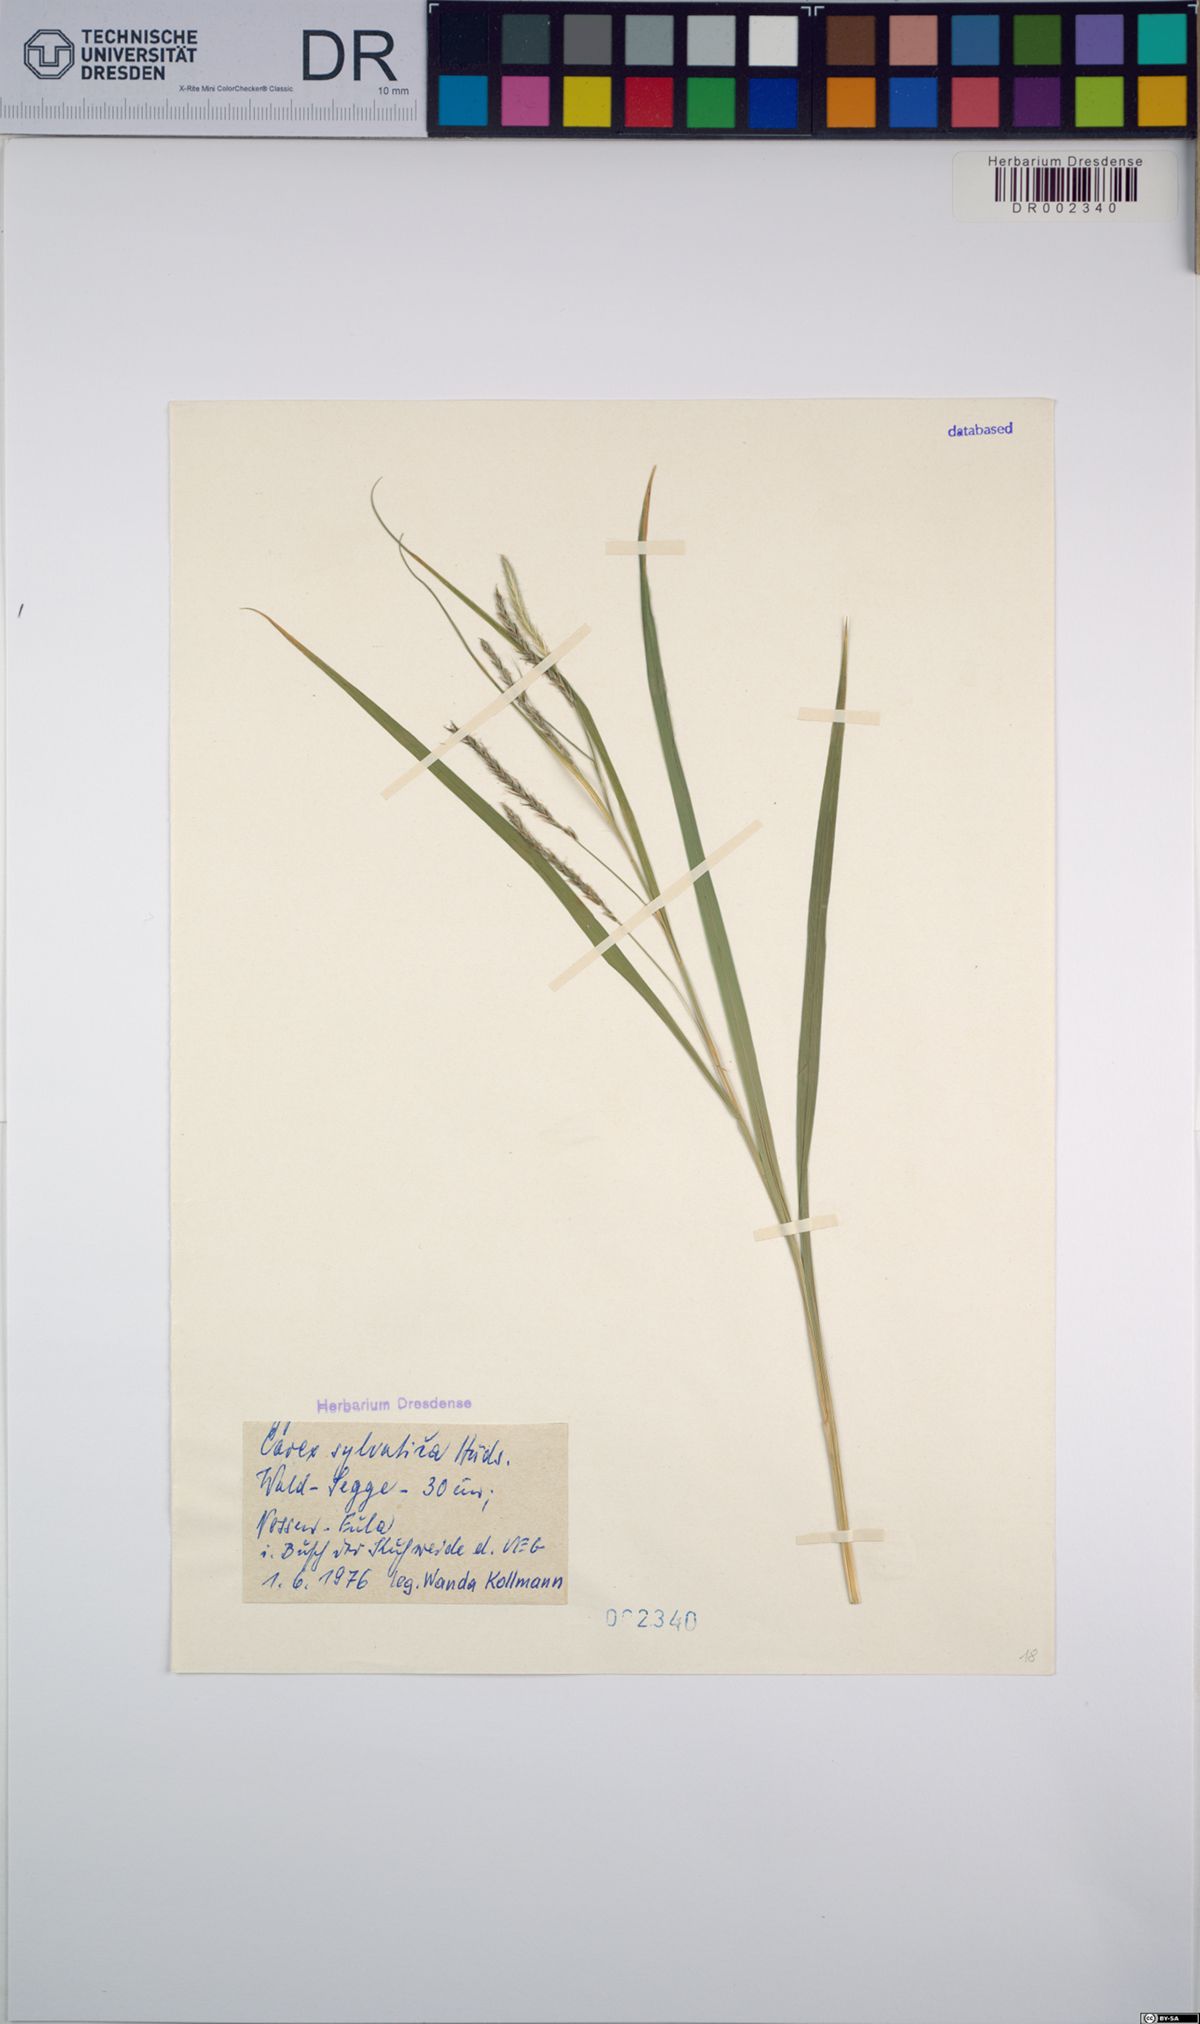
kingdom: Plantae
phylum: Tracheophyta
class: Liliopsida
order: Poales
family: Cyperaceae
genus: Carex
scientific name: Carex sylvatica
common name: Wood-sedge
